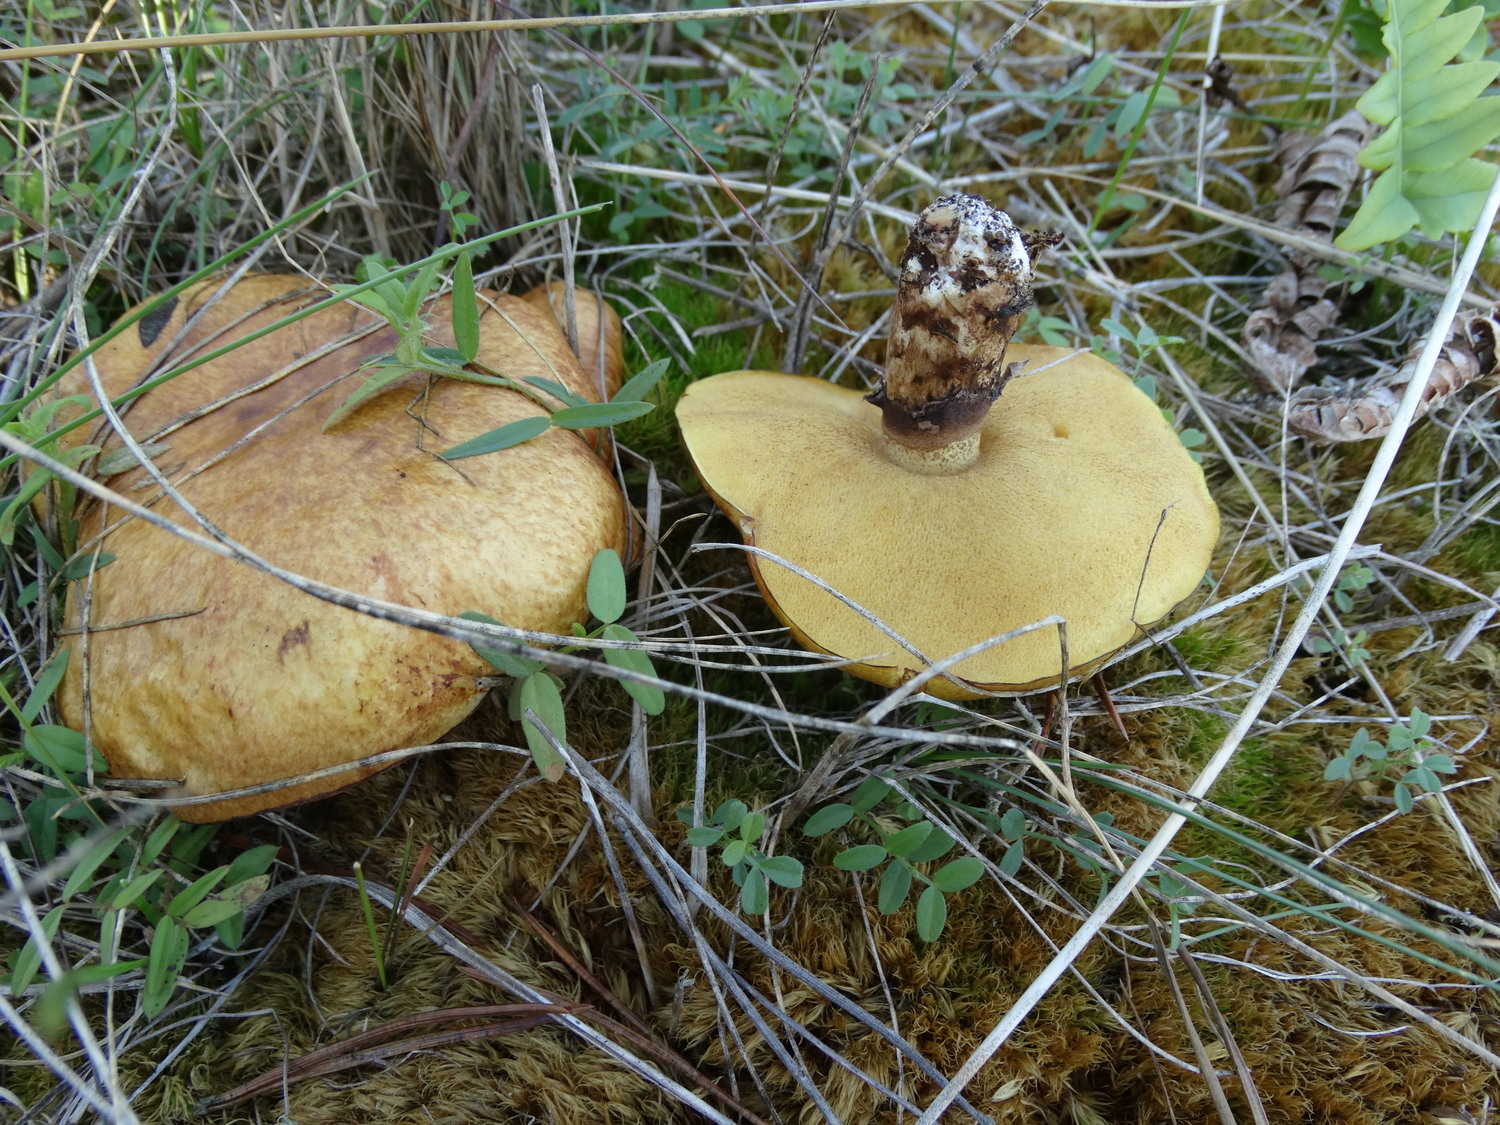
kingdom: Fungi
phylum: Basidiomycota
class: Agaricomycetes
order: Boletales
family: Suillaceae
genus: Suillus
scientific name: Suillus luteus
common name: brungul slimrørhat
